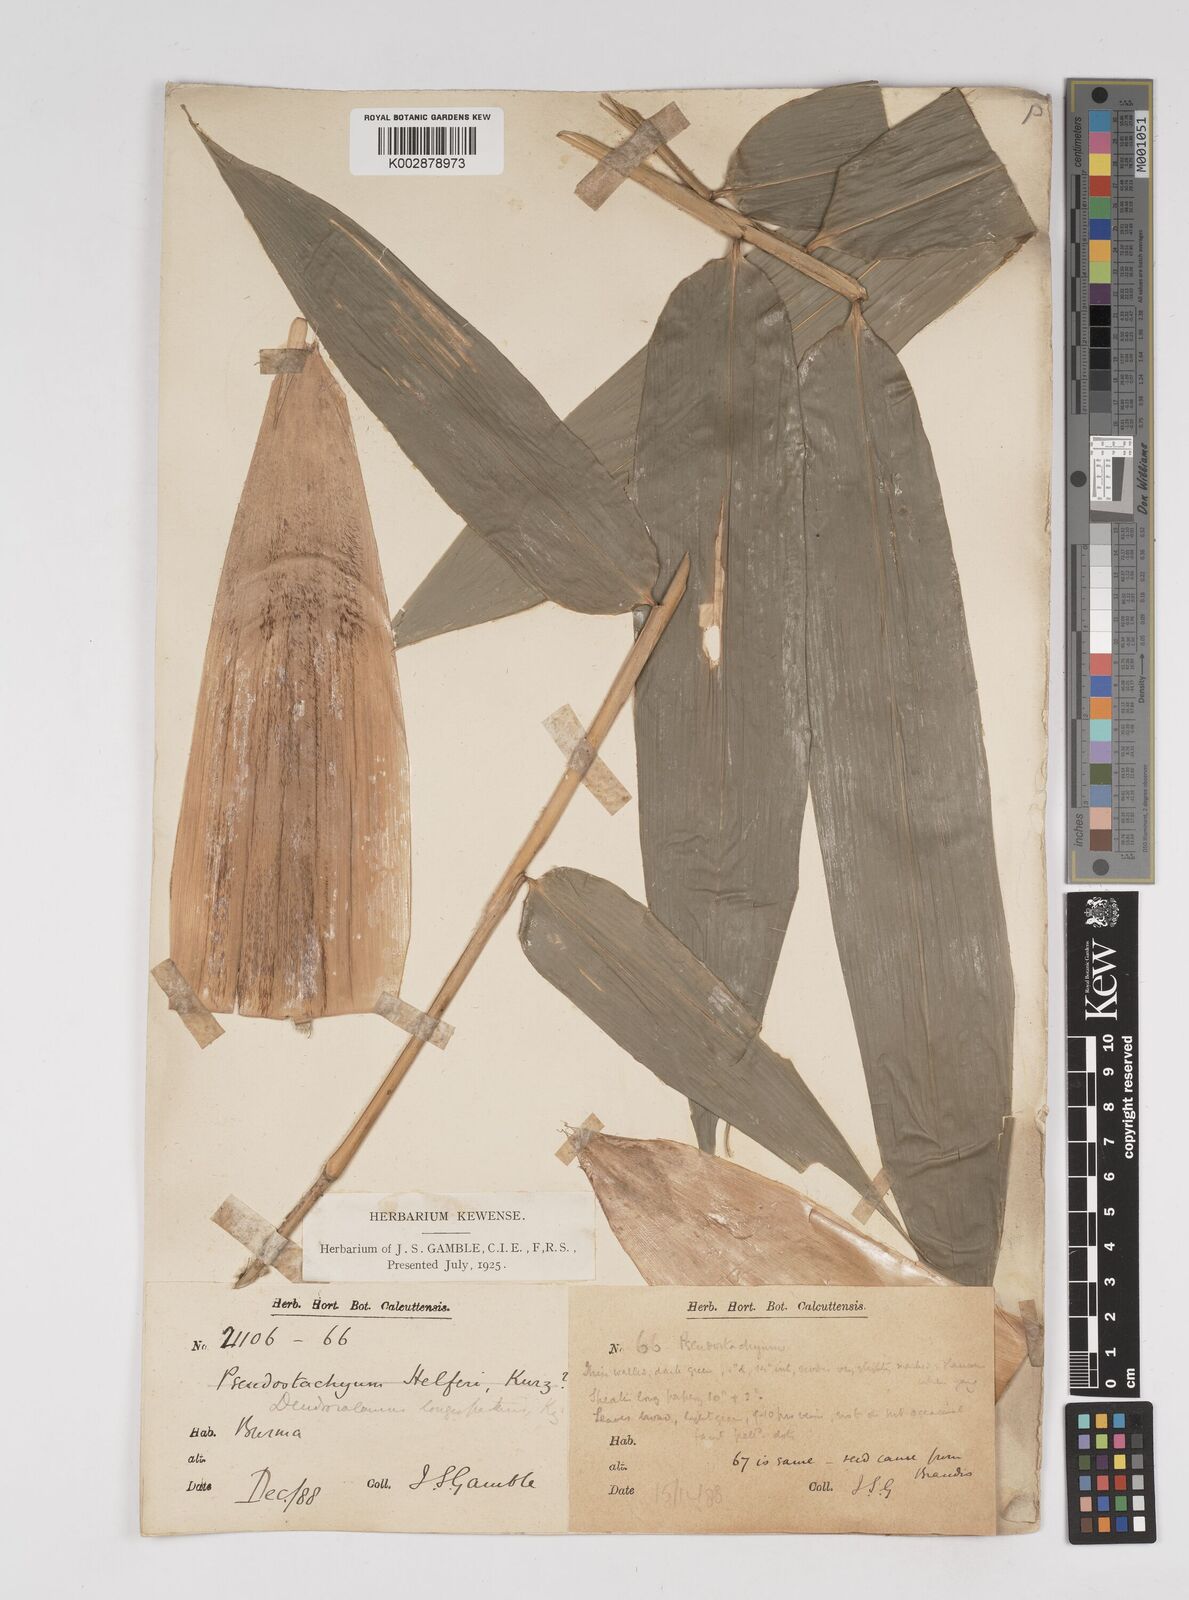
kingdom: Plantae
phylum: Tracheophyta
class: Liliopsida
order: Poales
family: Poaceae
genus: Dendrocalamus
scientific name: Dendrocalamus longispathus
